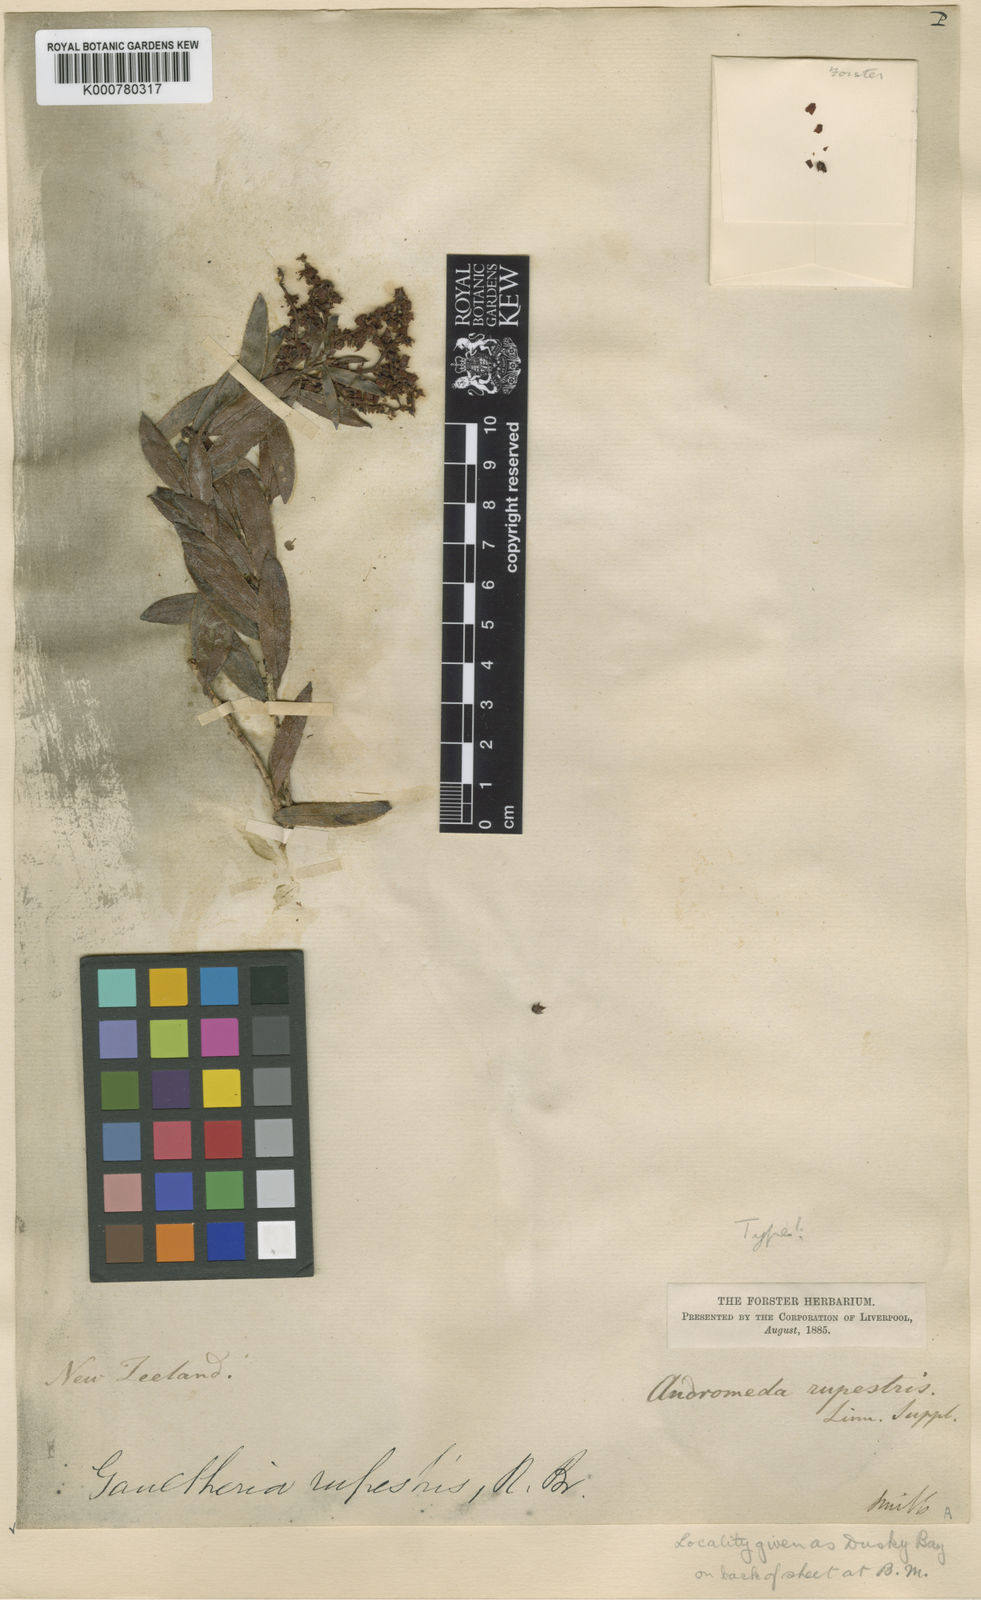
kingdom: Plantae
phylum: Tracheophyta
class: Magnoliopsida
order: Ericales
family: Ericaceae
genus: Gaultheria
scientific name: Gaultheria
